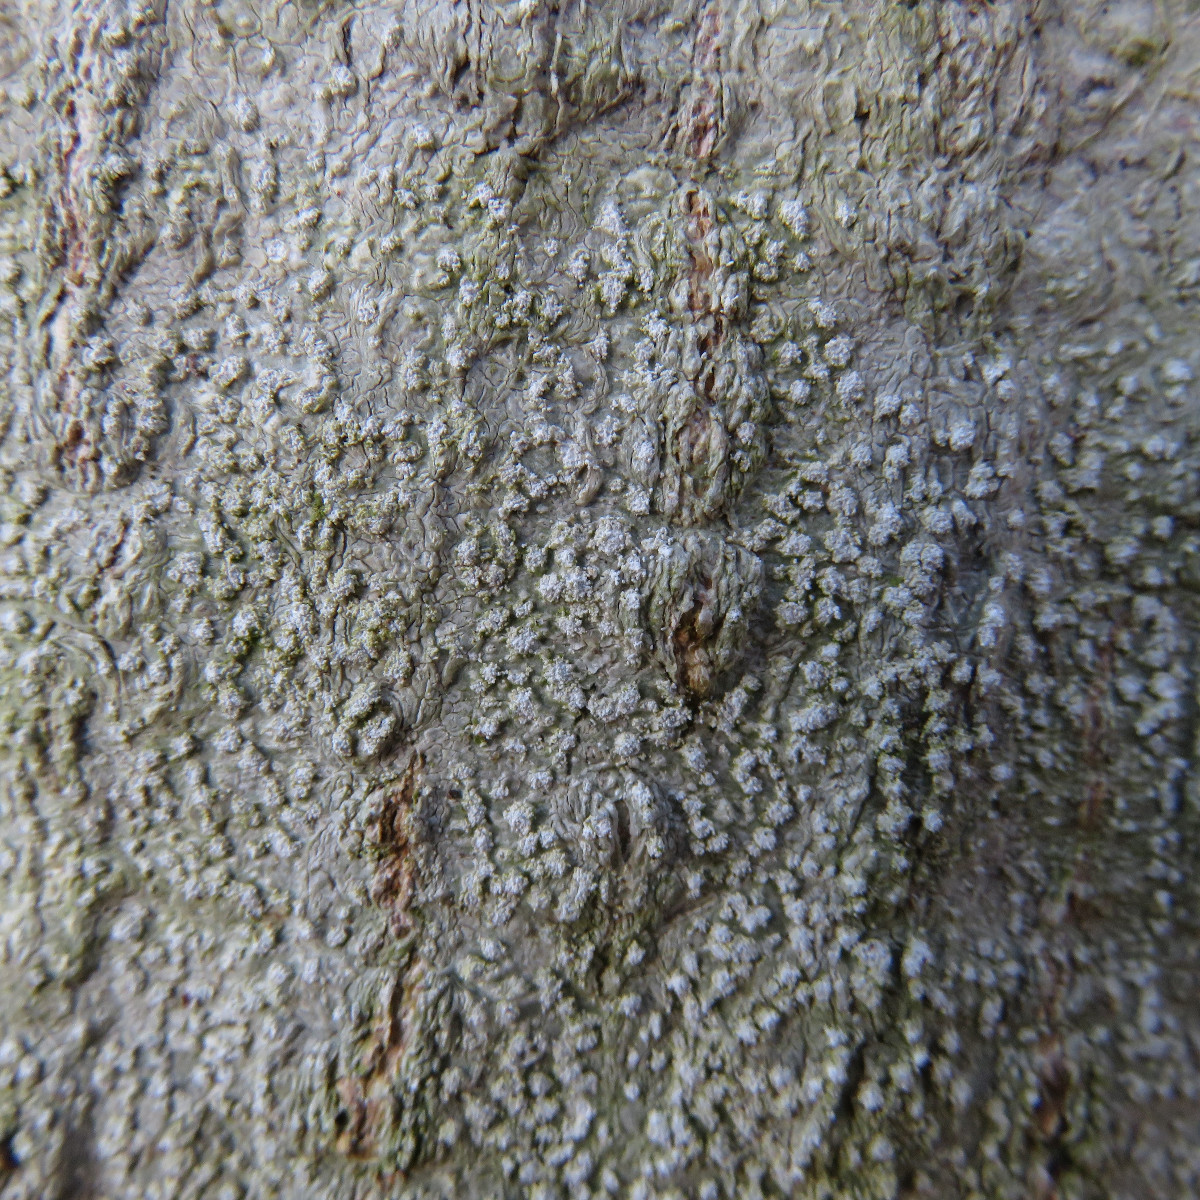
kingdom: Fungi
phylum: Ascomycota
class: Lecanoromycetes
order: Pertusariales
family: Pertusariaceae
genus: Lepra
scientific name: Lepra amara
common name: bitter prikvortelav
